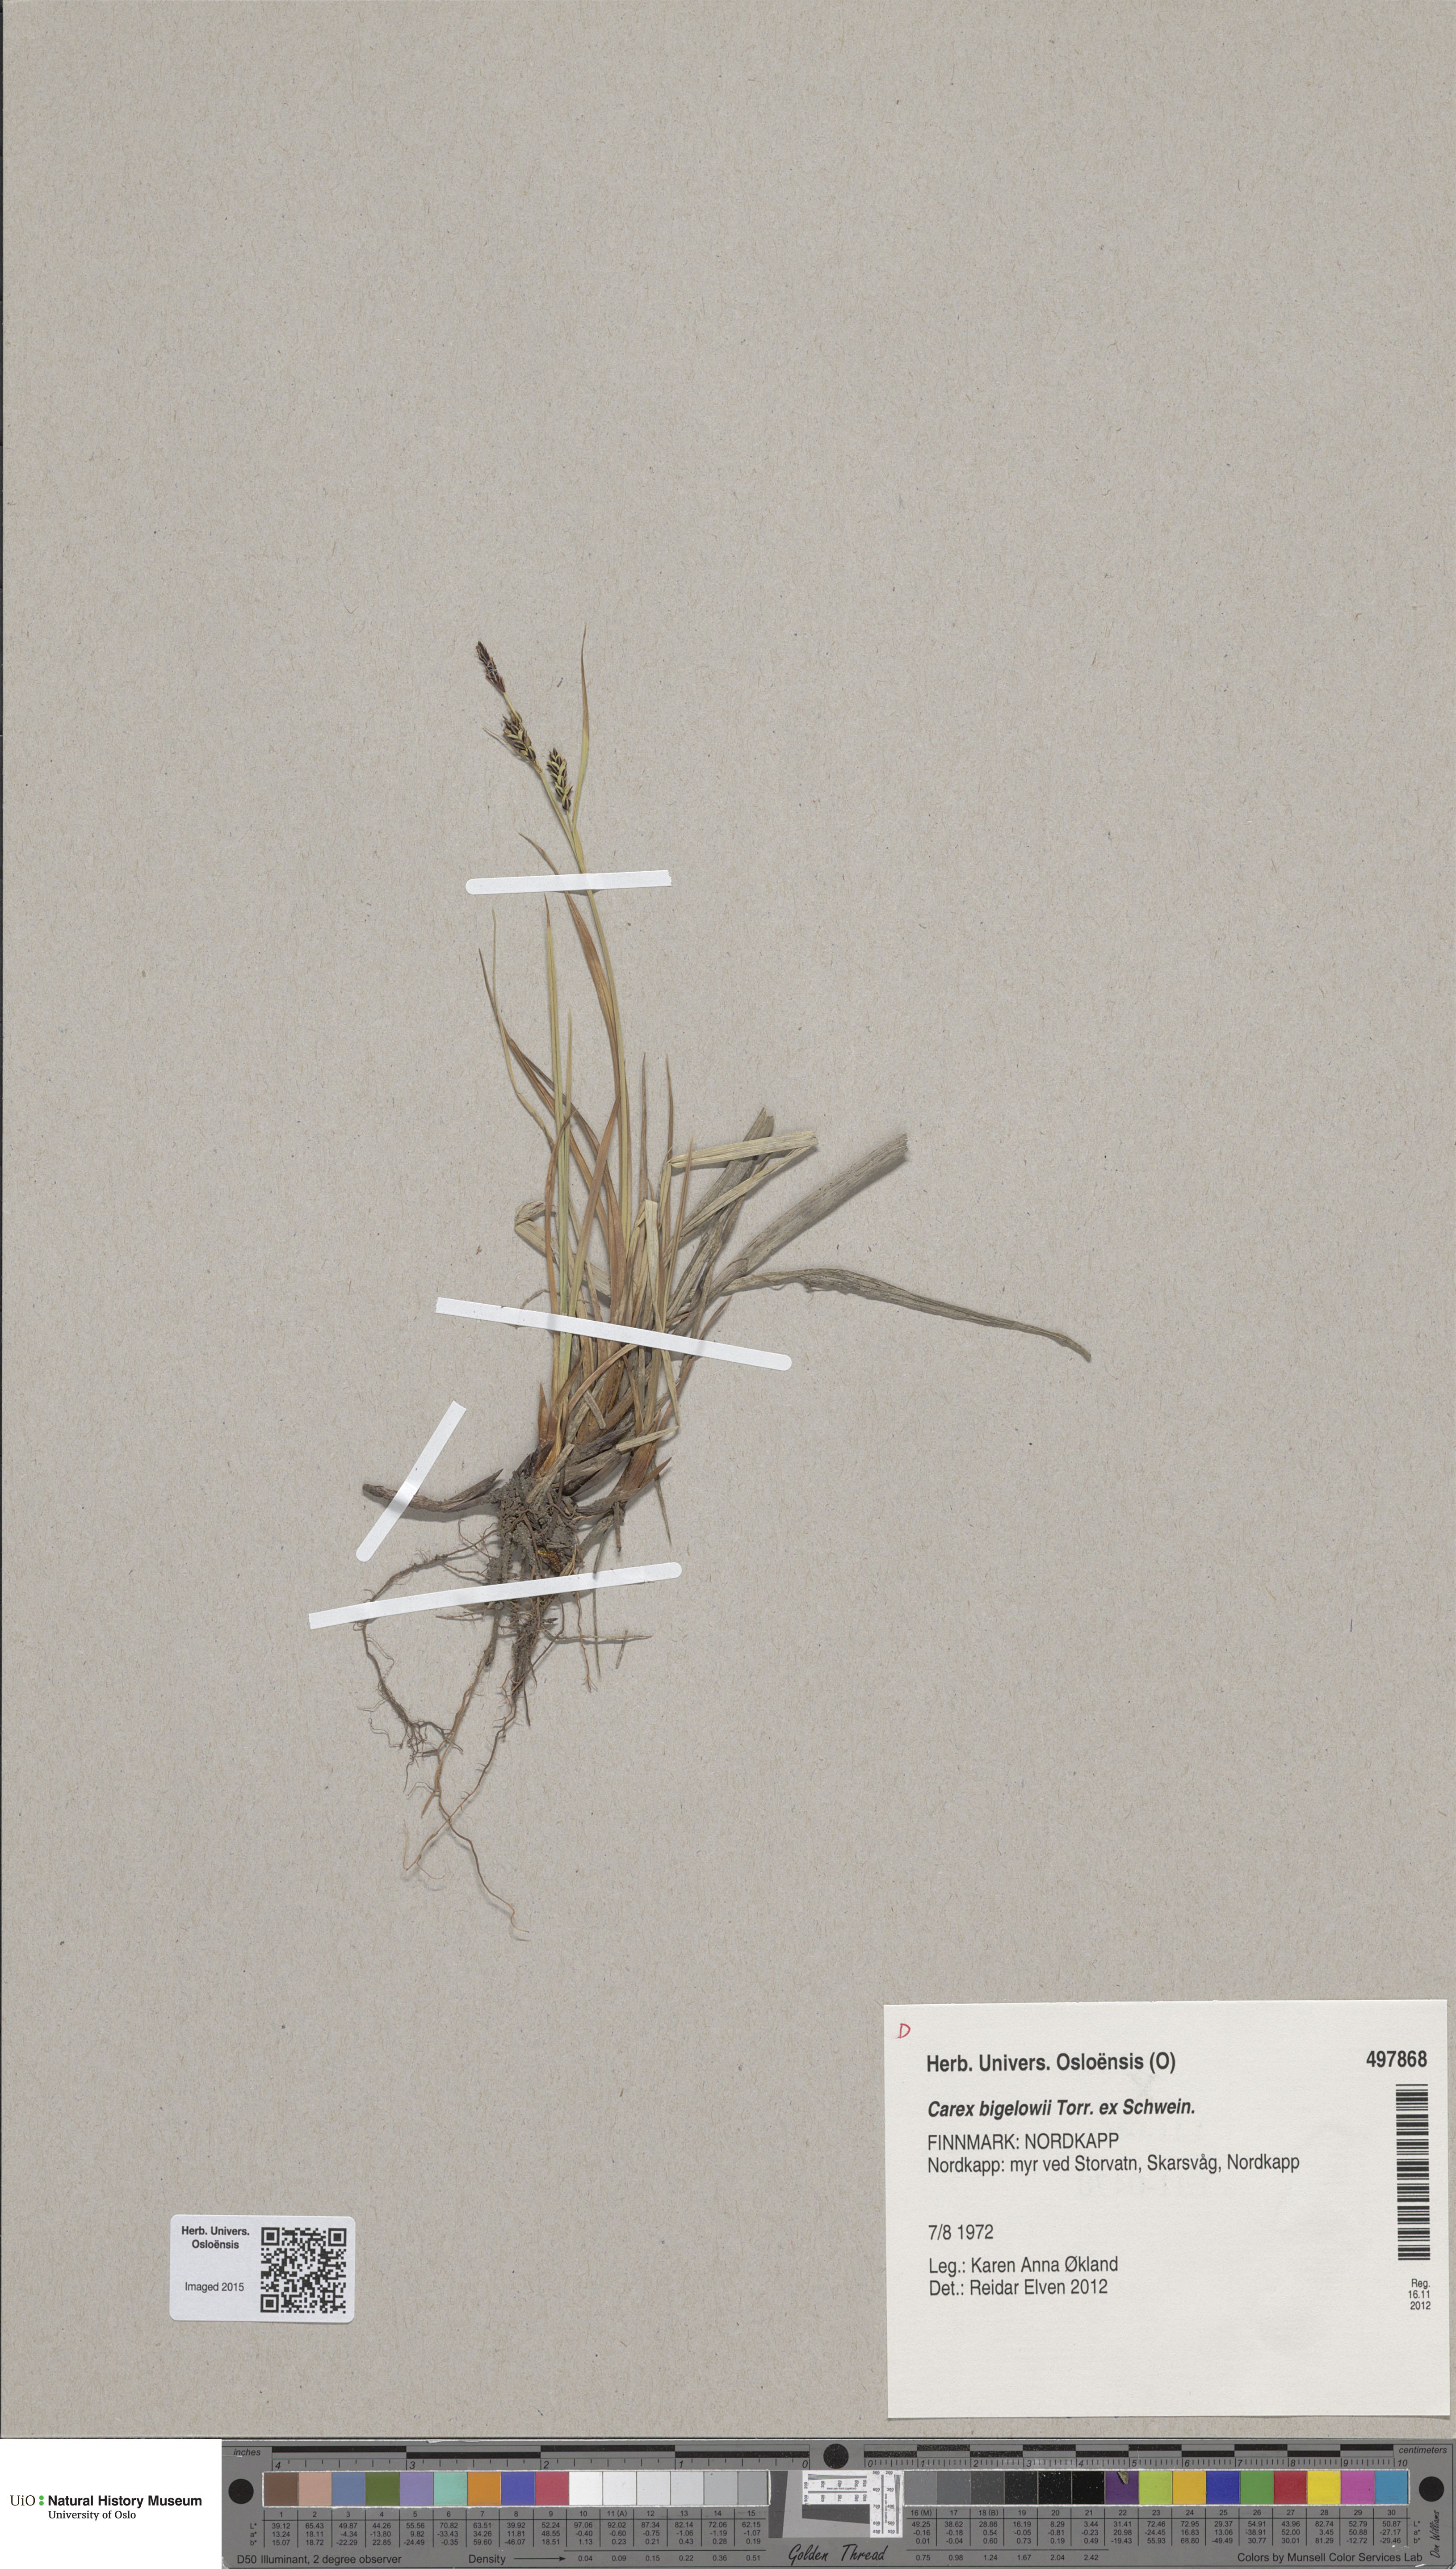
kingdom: Plantae
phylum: Tracheophyta
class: Liliopsida
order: Poales
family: Cyperaceae
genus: Carex
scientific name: Carex bigelowii
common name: Stiff sedge
